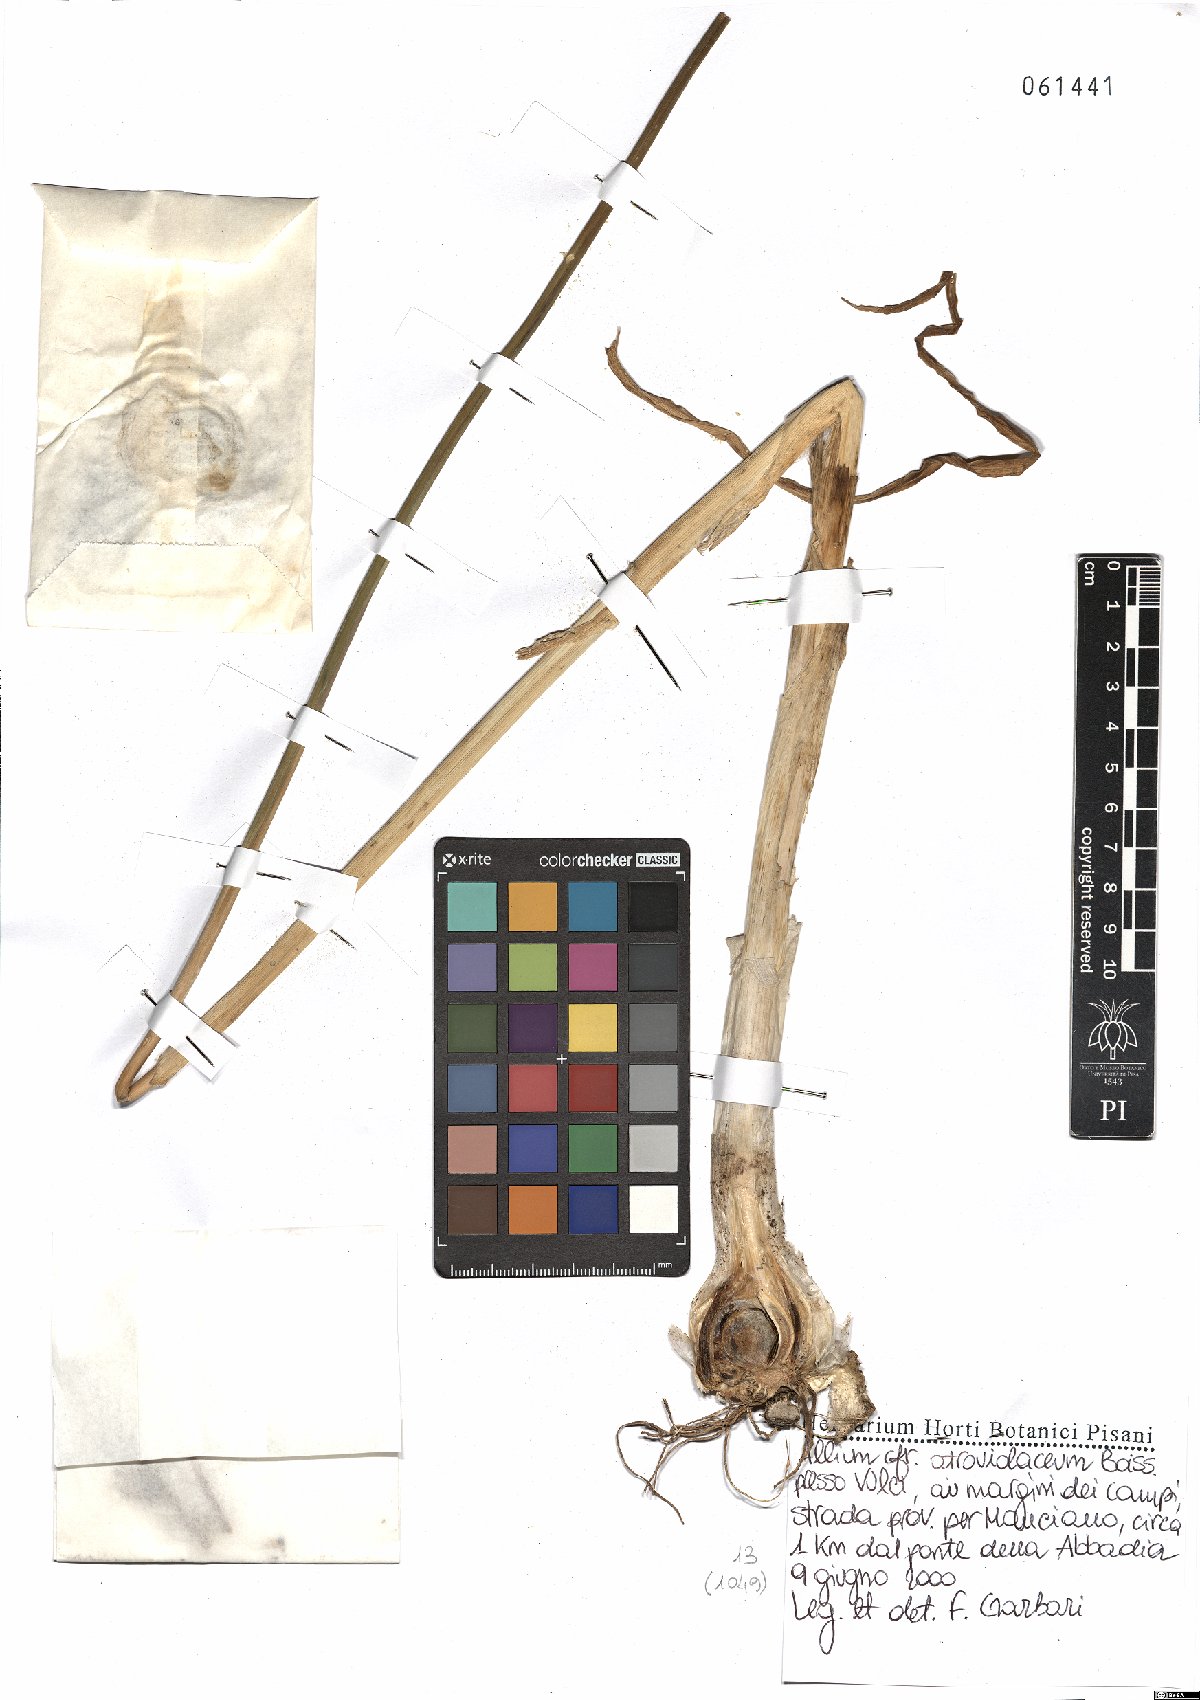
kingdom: Plantae
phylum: Tracheophyta
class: Liliopsida
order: Asparagales
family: Amaryllidaceae
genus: Allium
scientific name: Allium atroviolaceum
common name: Broadleaf wild leek
